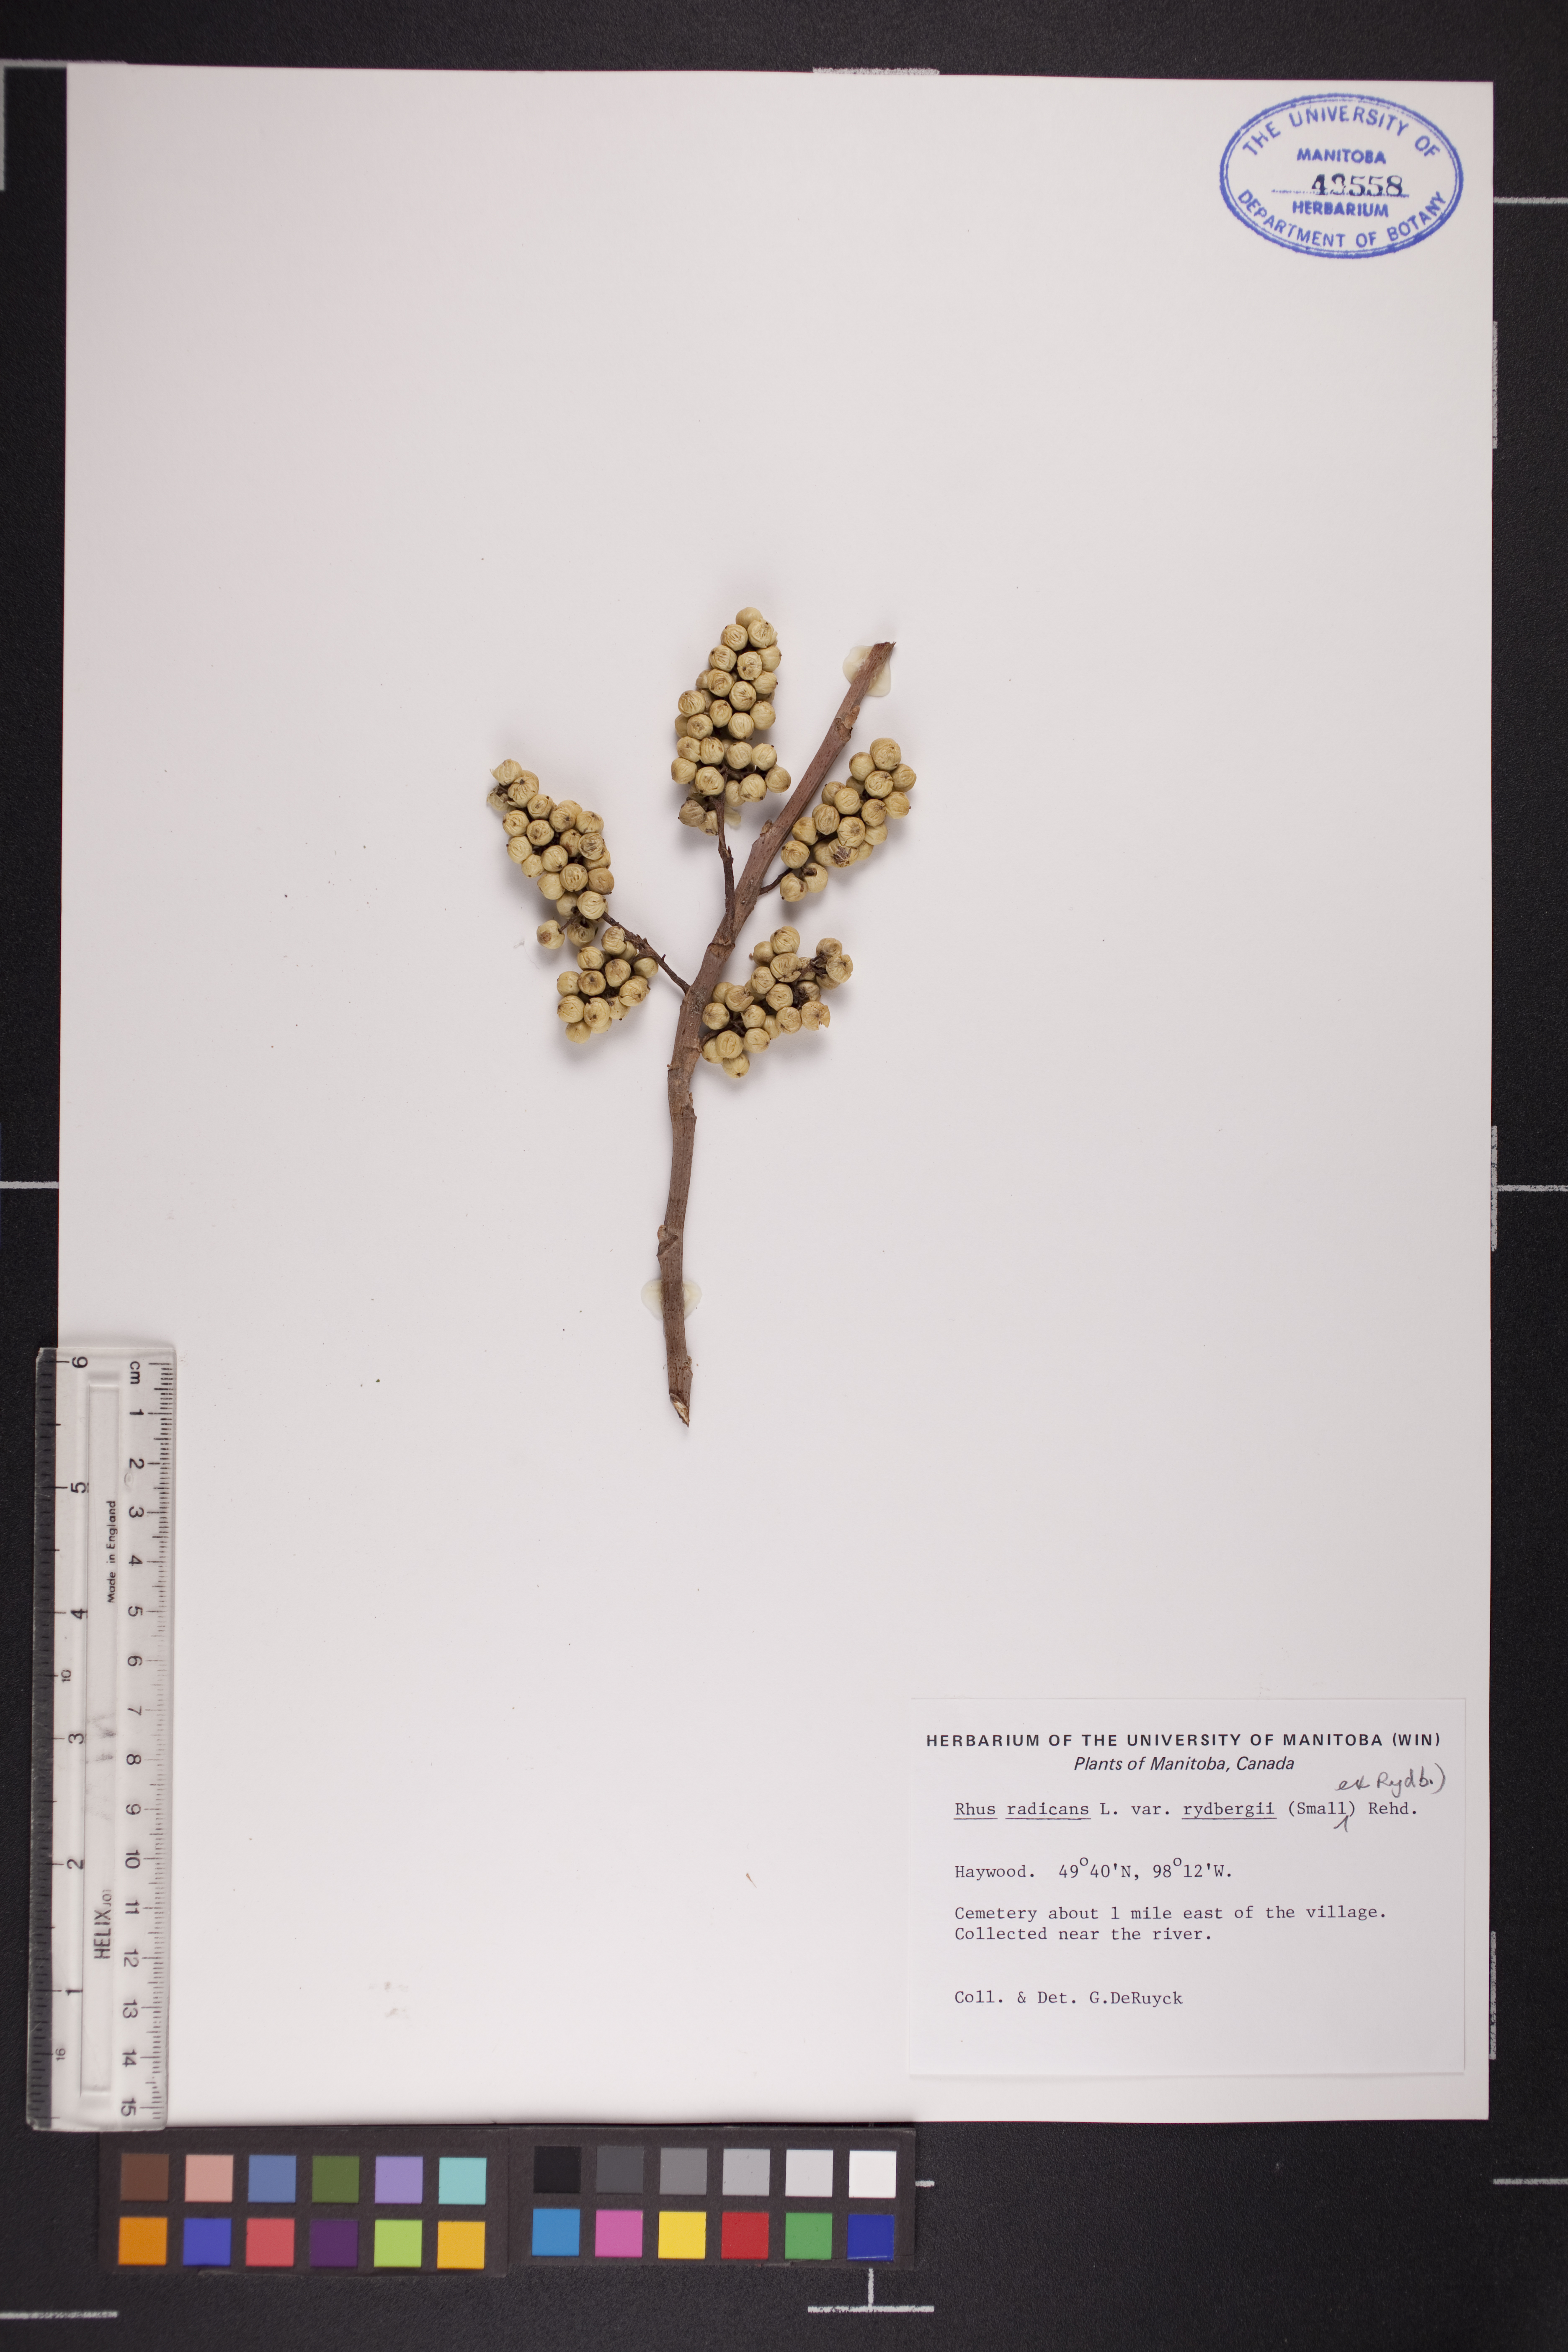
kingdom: Plantae
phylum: Tracheophyta
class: Magnoliopsida
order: Sapindales
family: Anacardiaceae
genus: Toxicodendron
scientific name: Toxicodendron rydbergii
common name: Rydberg's poison-ivy
